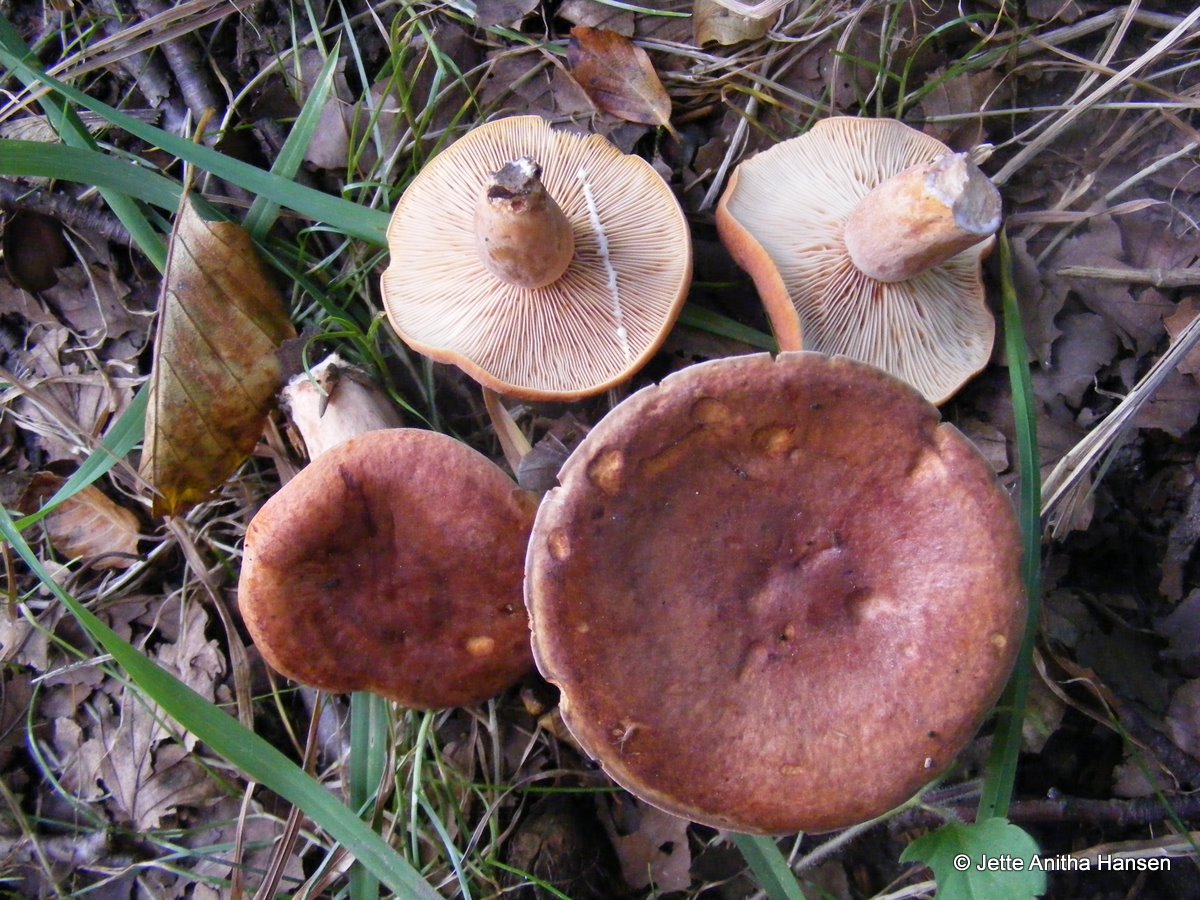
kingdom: Fungi
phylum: Basidiomycota
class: Agaricomycetes
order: Russulales
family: Russulaceae
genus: Lactarius
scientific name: Lactarius fulvissimus
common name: ræve-mælkehat
